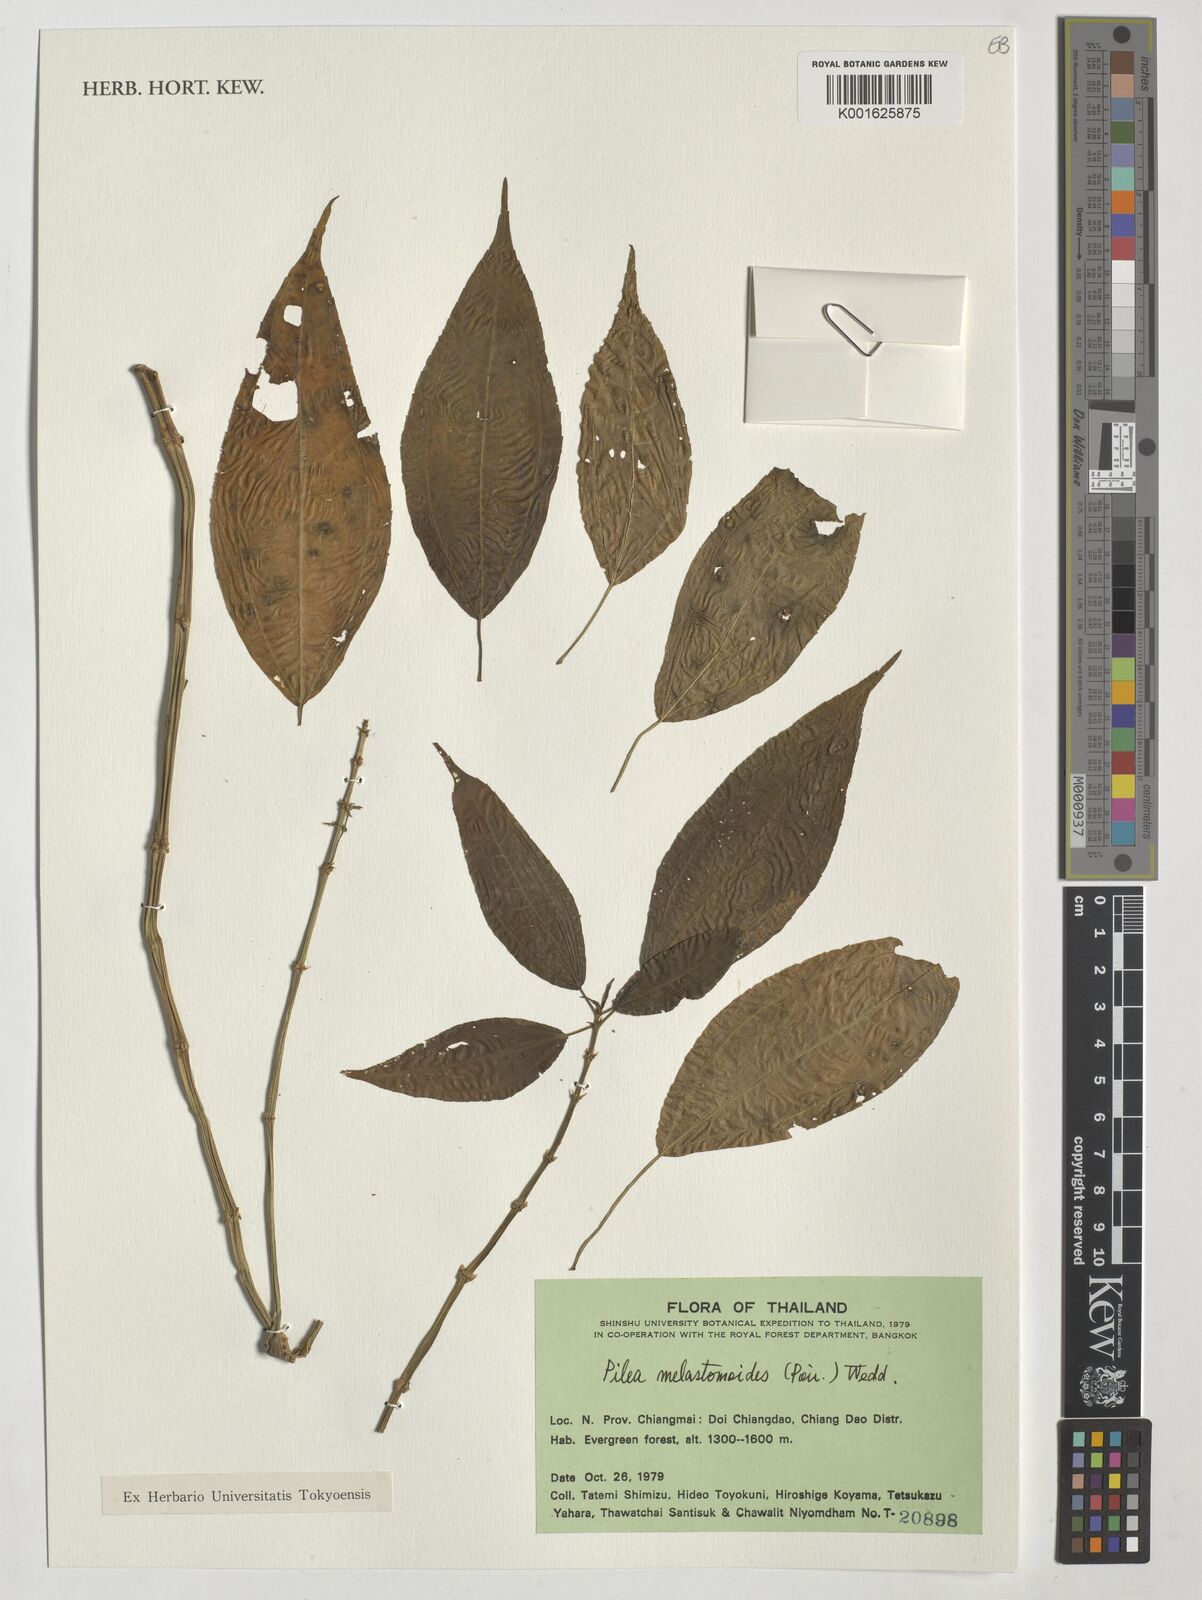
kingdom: Plantae
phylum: Tracheophyta
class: Magnoliopsida
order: Rosales
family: Urticaceae
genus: Pilea
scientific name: Pilea melastomoides
